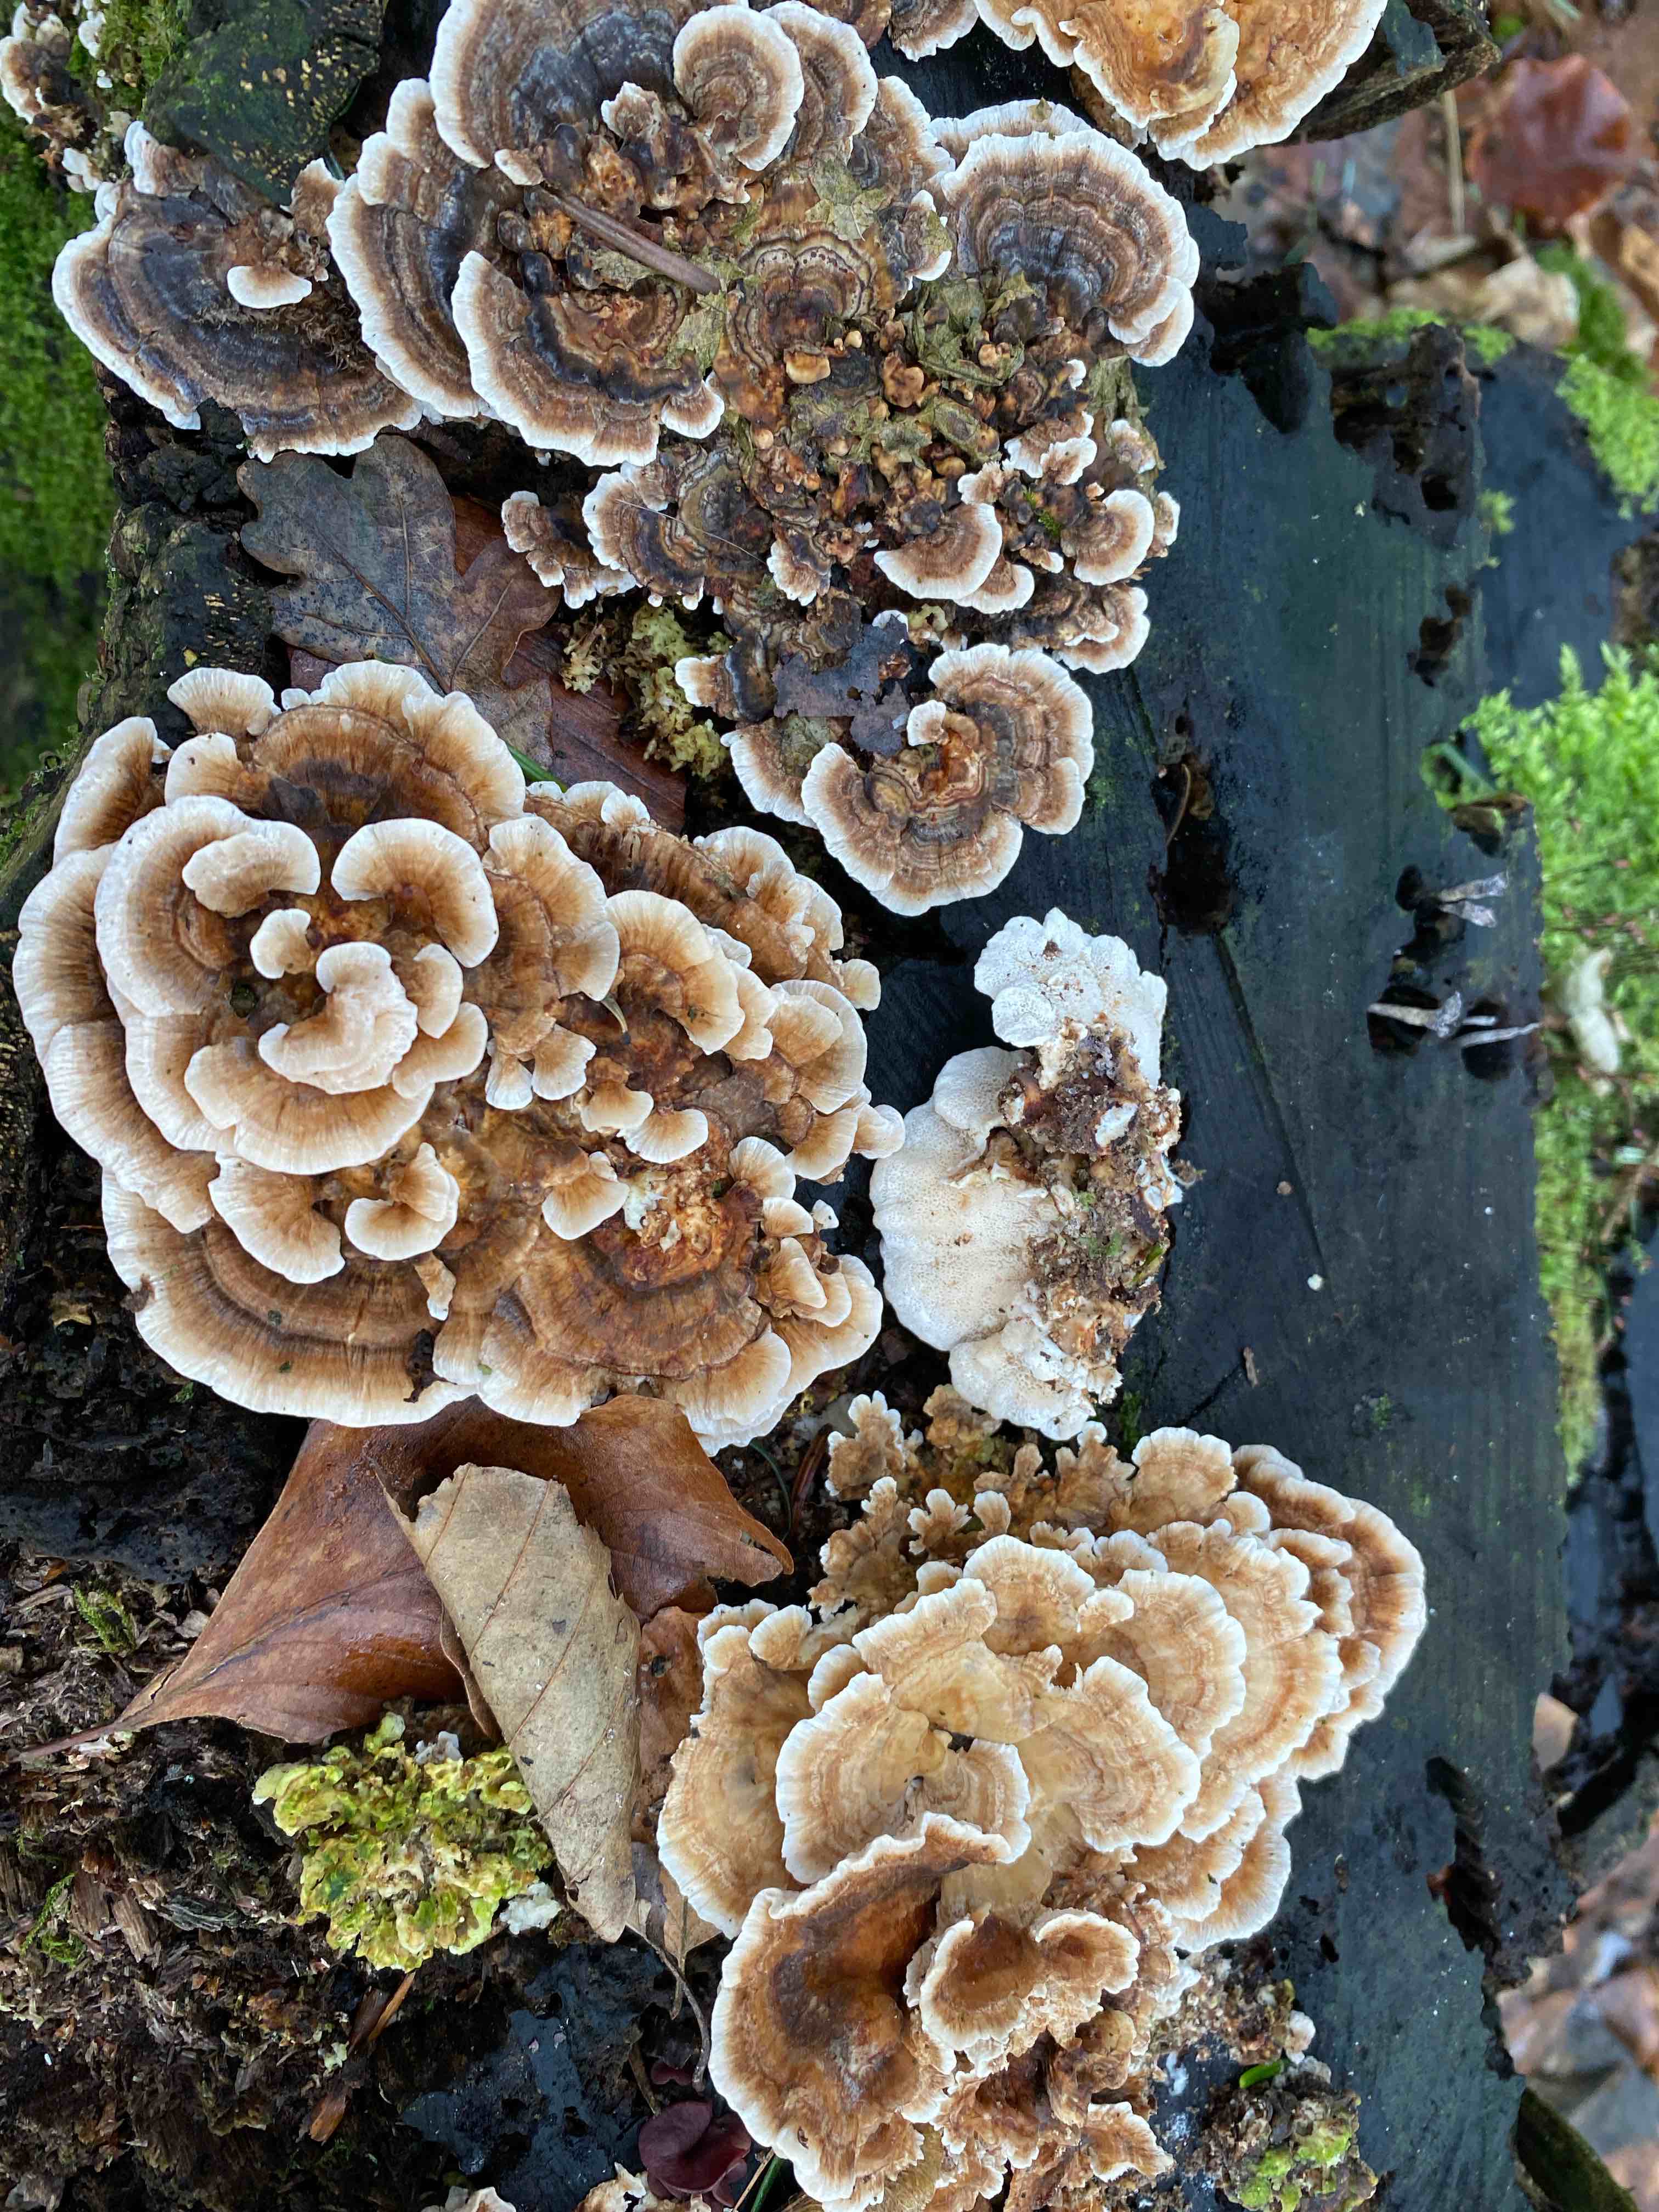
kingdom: Fungi
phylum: Basidiomycota
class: Agaricomycetes
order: Polyporales
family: Polyporaceae
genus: Trametes
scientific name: Trametes versicolor
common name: broget læderporesvamp
